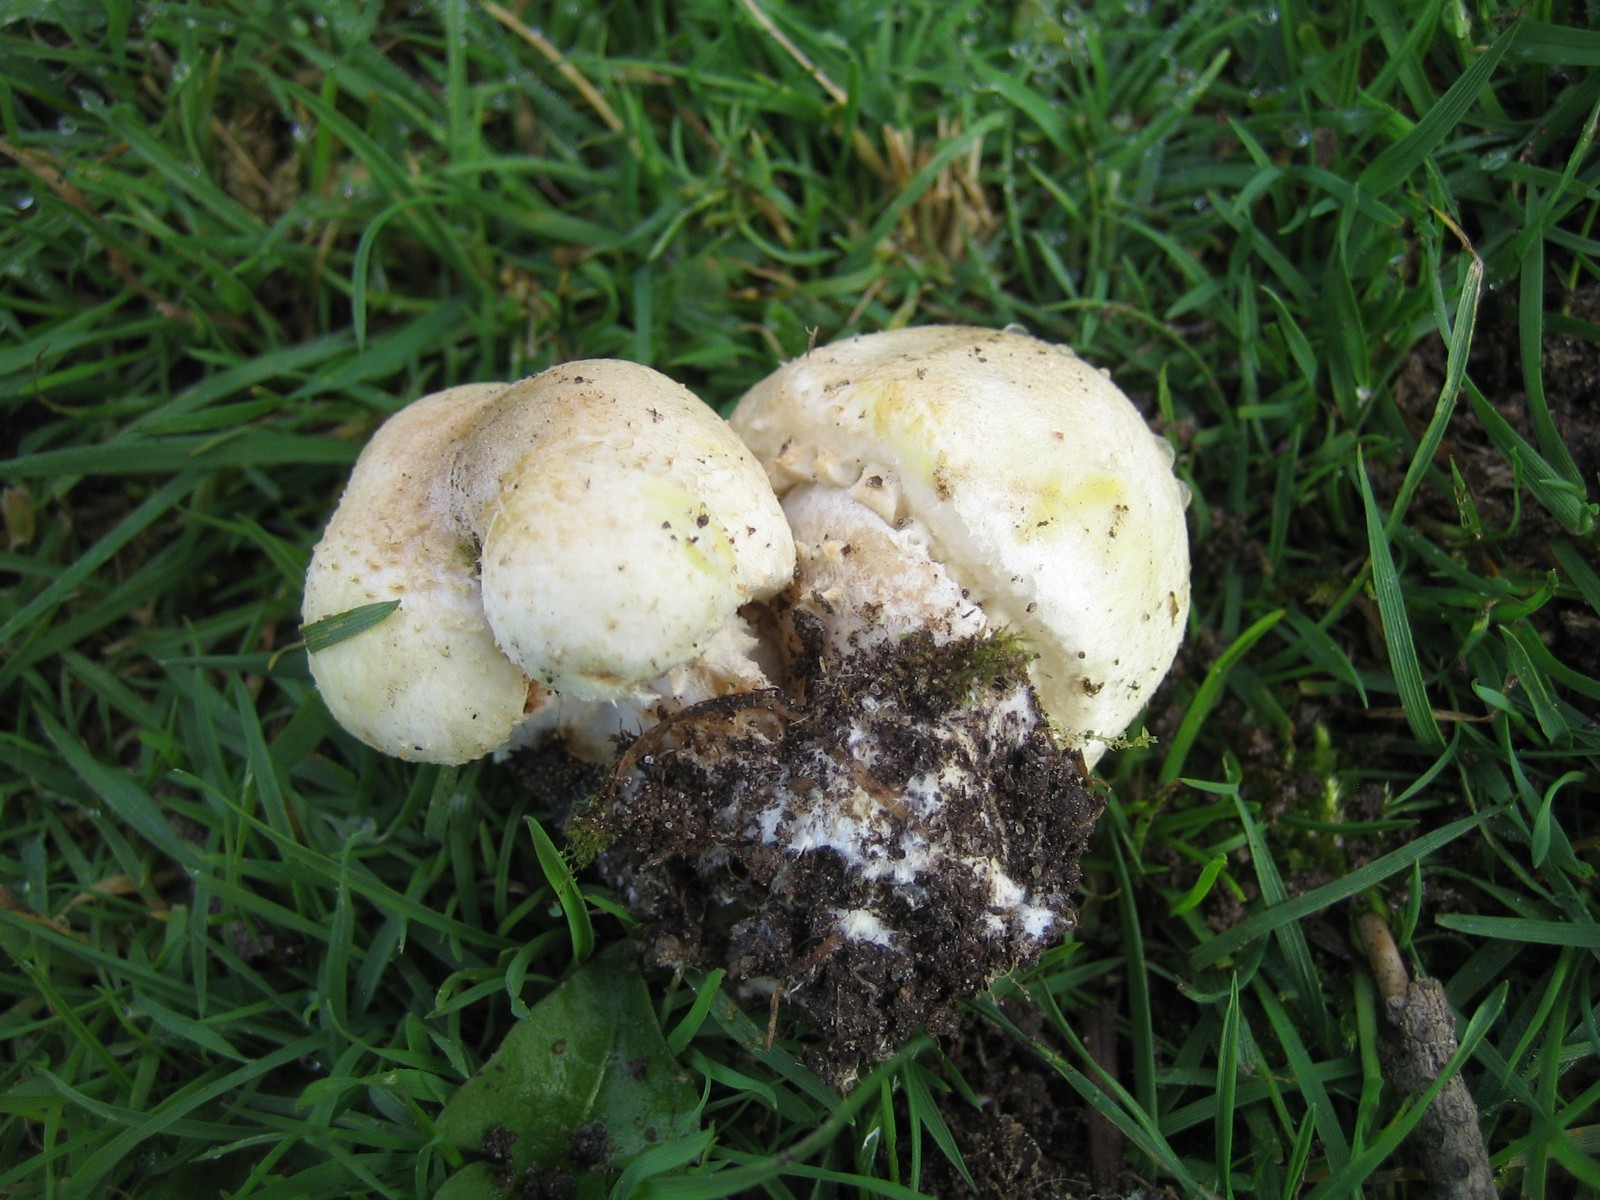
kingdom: Fungi
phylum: Basidiomycota
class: Agaricomycetes
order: Agaricales
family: Agaricaceae
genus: Agaricus
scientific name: Agaricus
